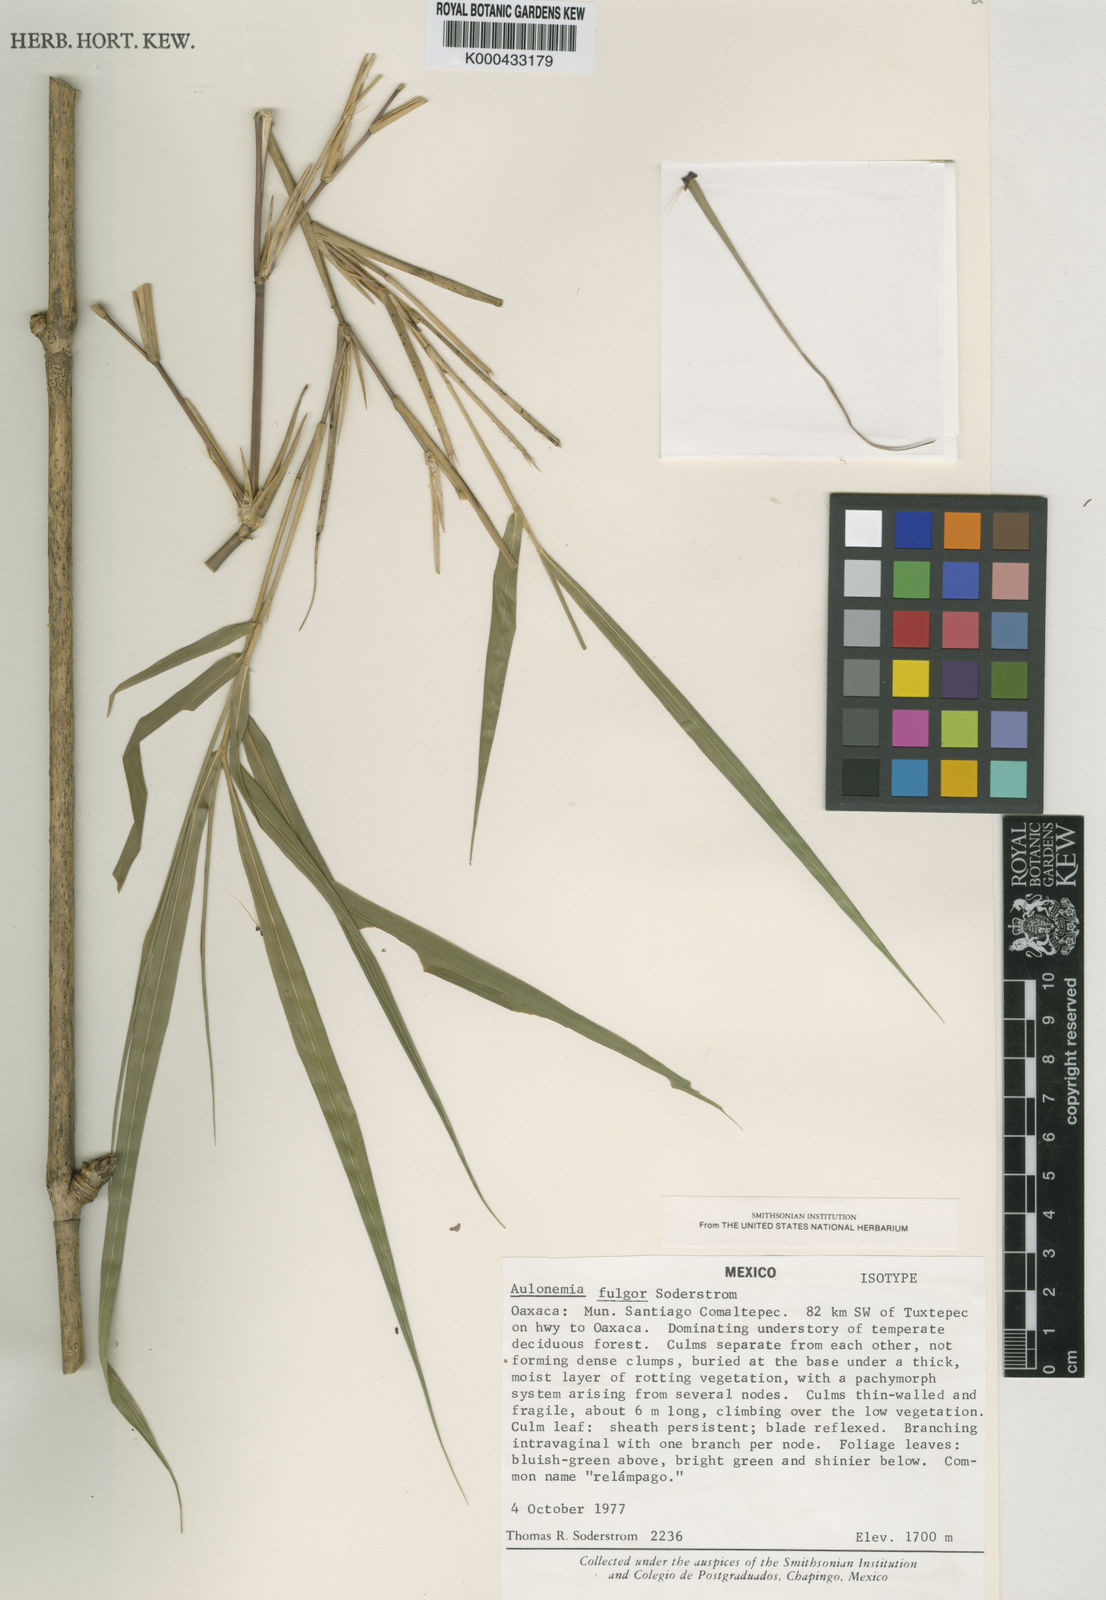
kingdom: Plantae
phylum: Tracheophyta
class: Liliopsida
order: Poales
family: Poaceae
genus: Olmeca
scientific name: Olmeca fulgor
